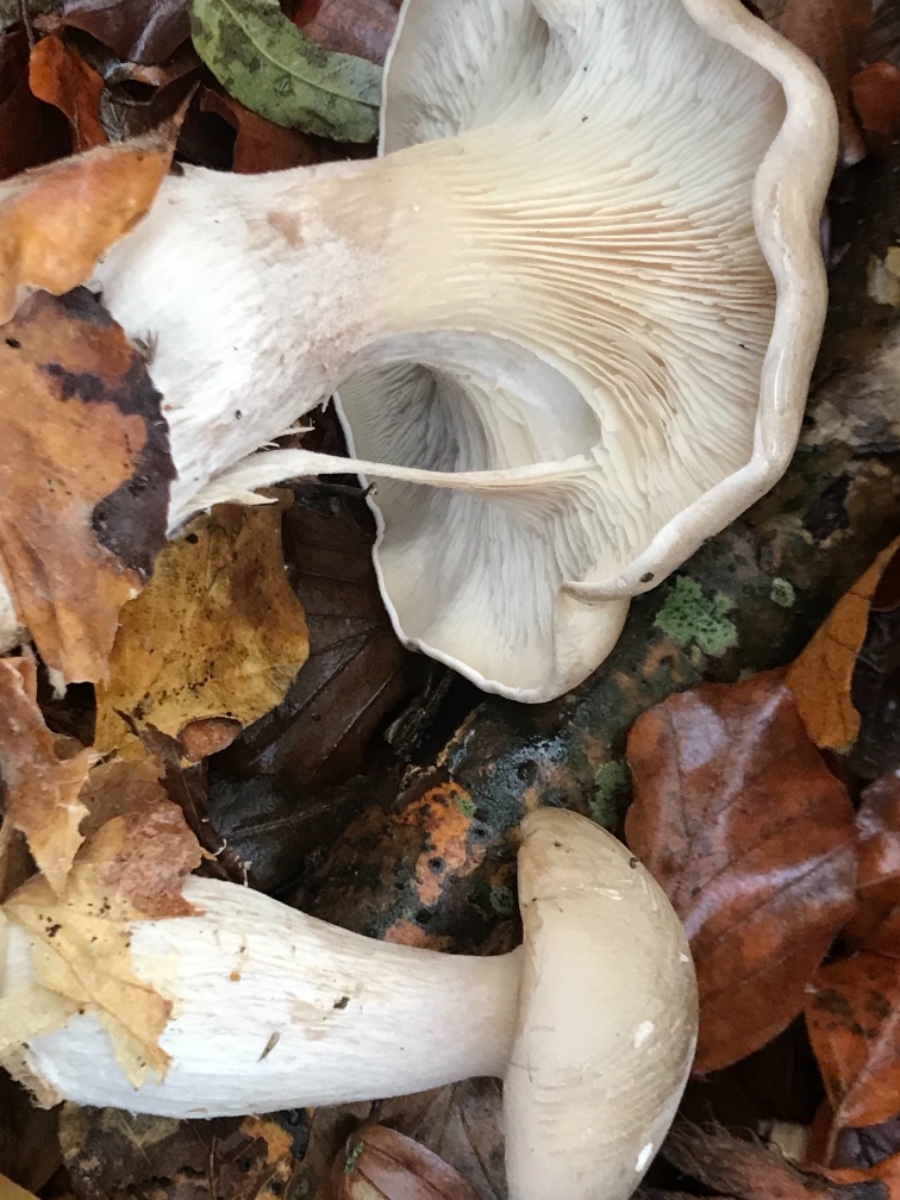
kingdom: Fungi
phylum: Basidiomycota
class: Agaricomycetes
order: Agaricales
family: Tricholomataceae
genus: Clitocybe
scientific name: Clitocybe nebularis
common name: tåge-tragthat
